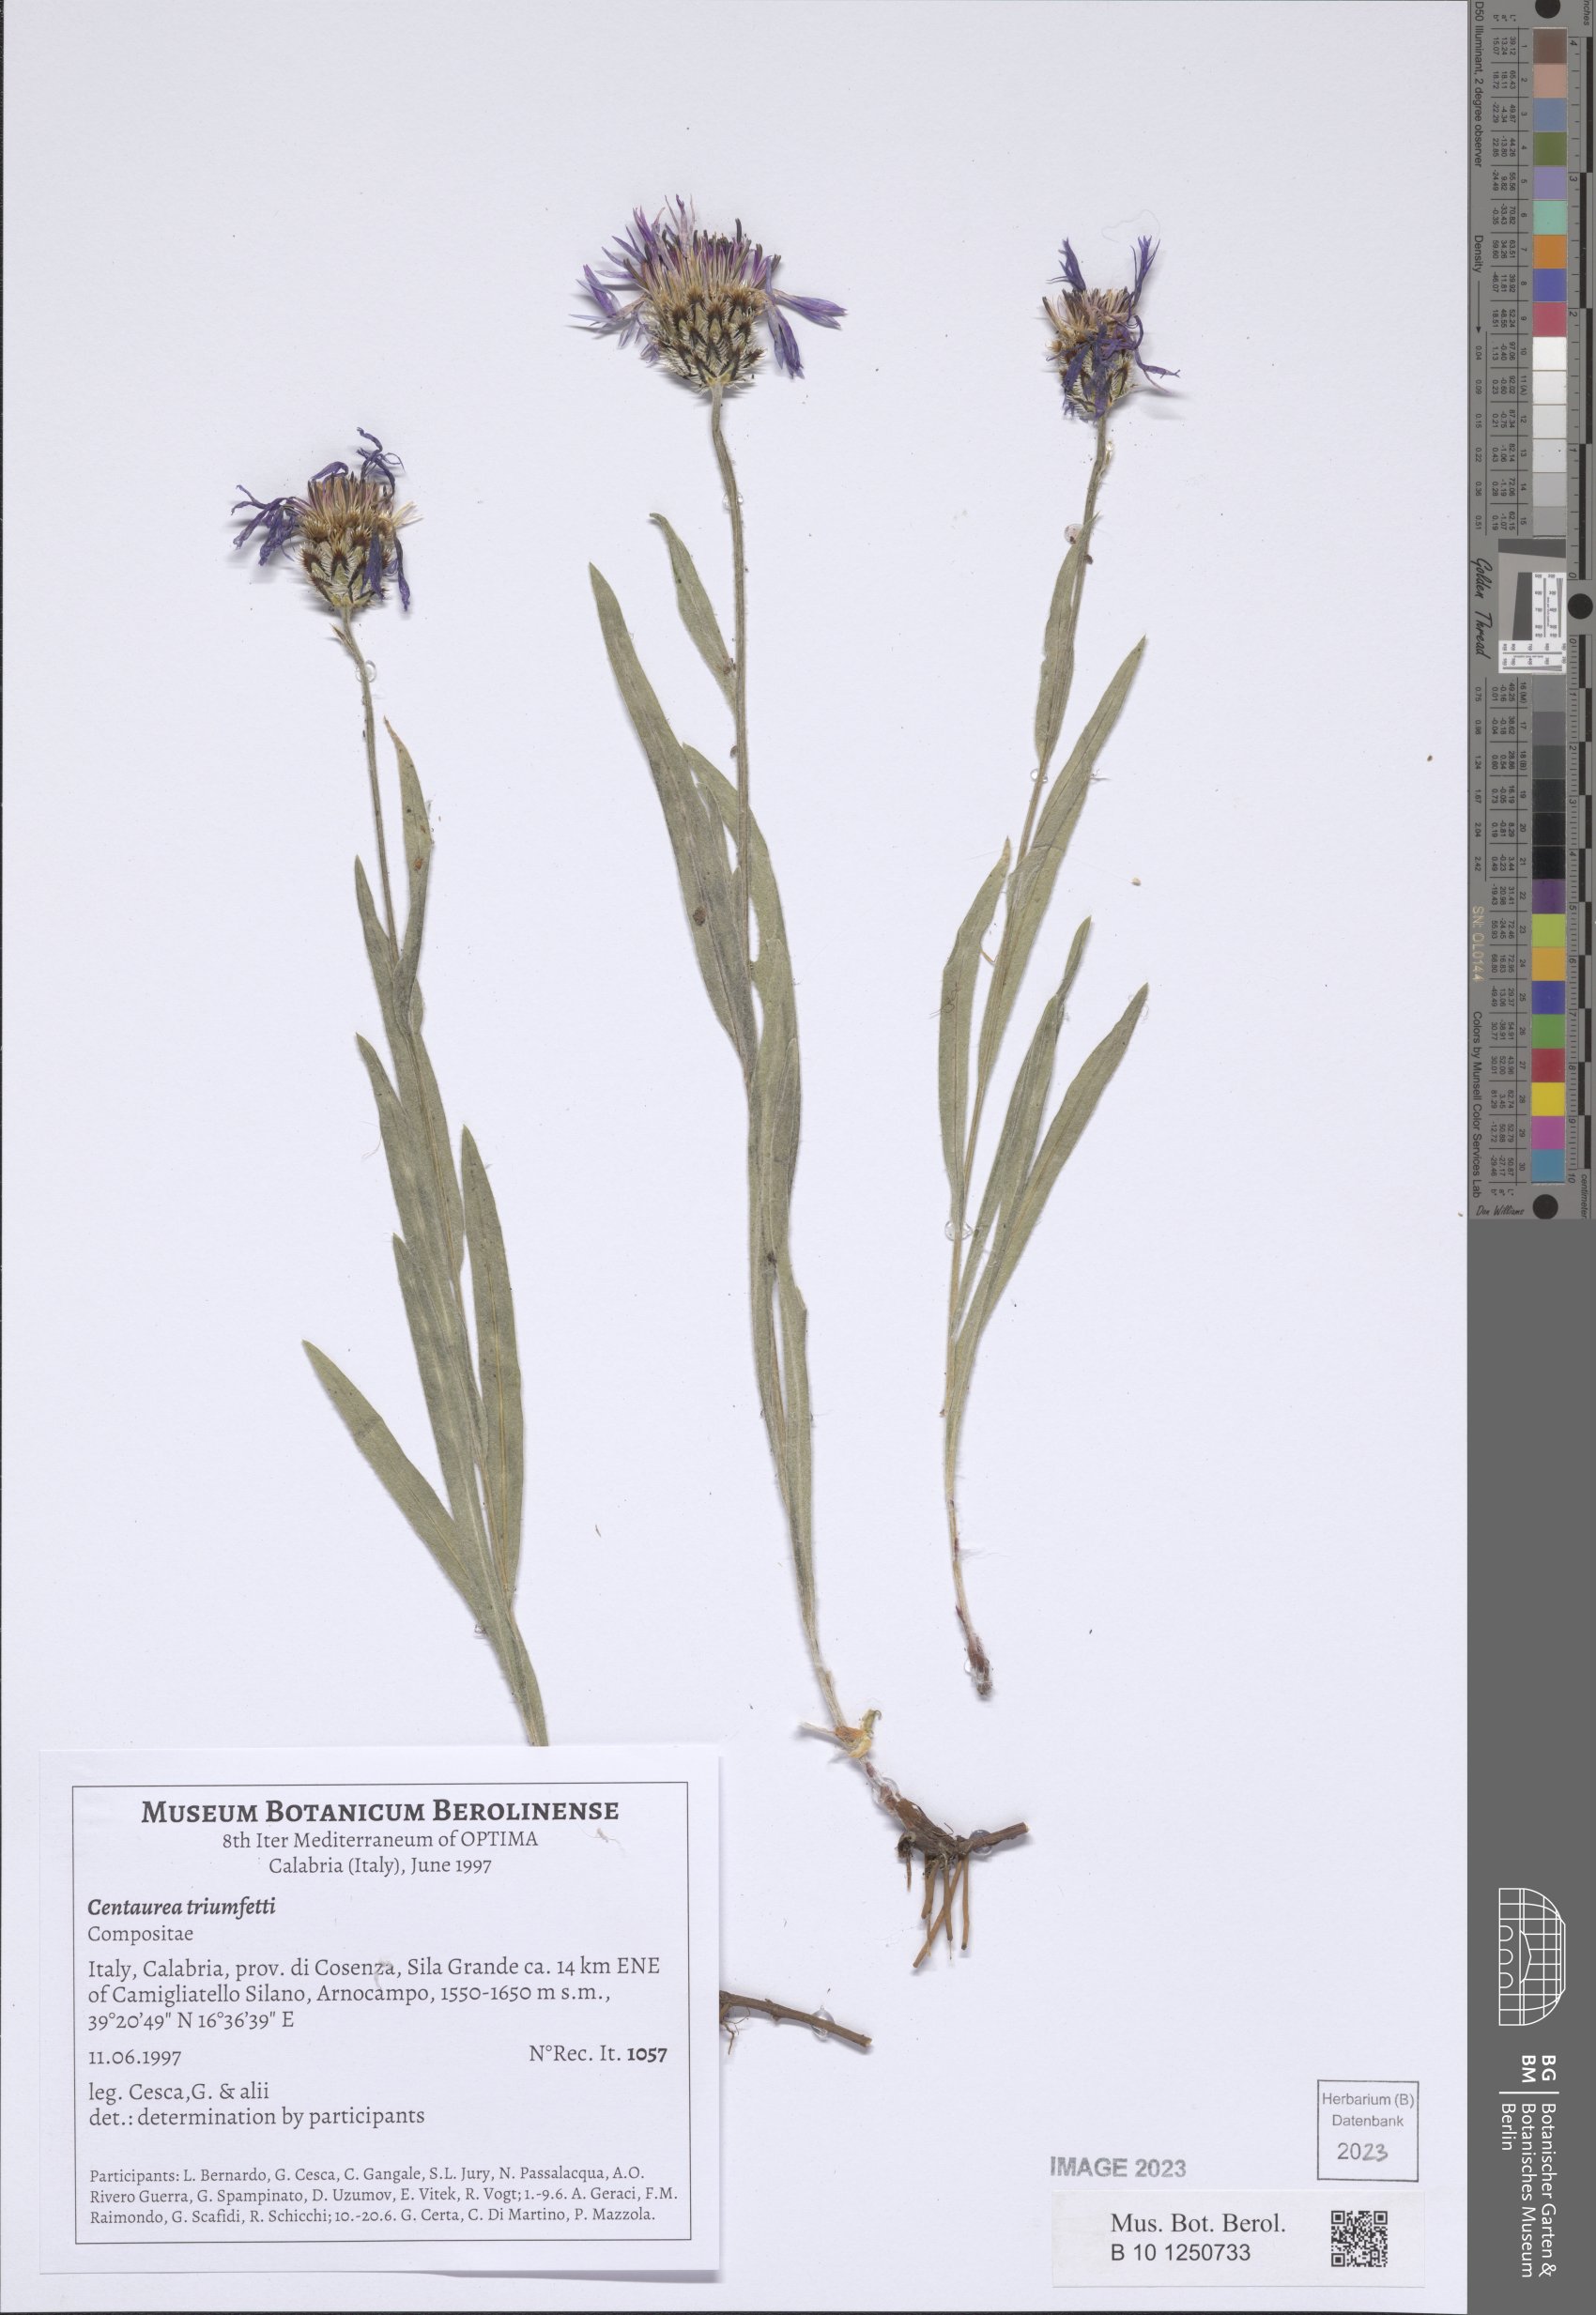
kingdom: Plantae
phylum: Tracheophyta
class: Magnoliopsida
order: Asterales
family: Asteraceae
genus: Centaurea
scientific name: Centaurea triumfettii
